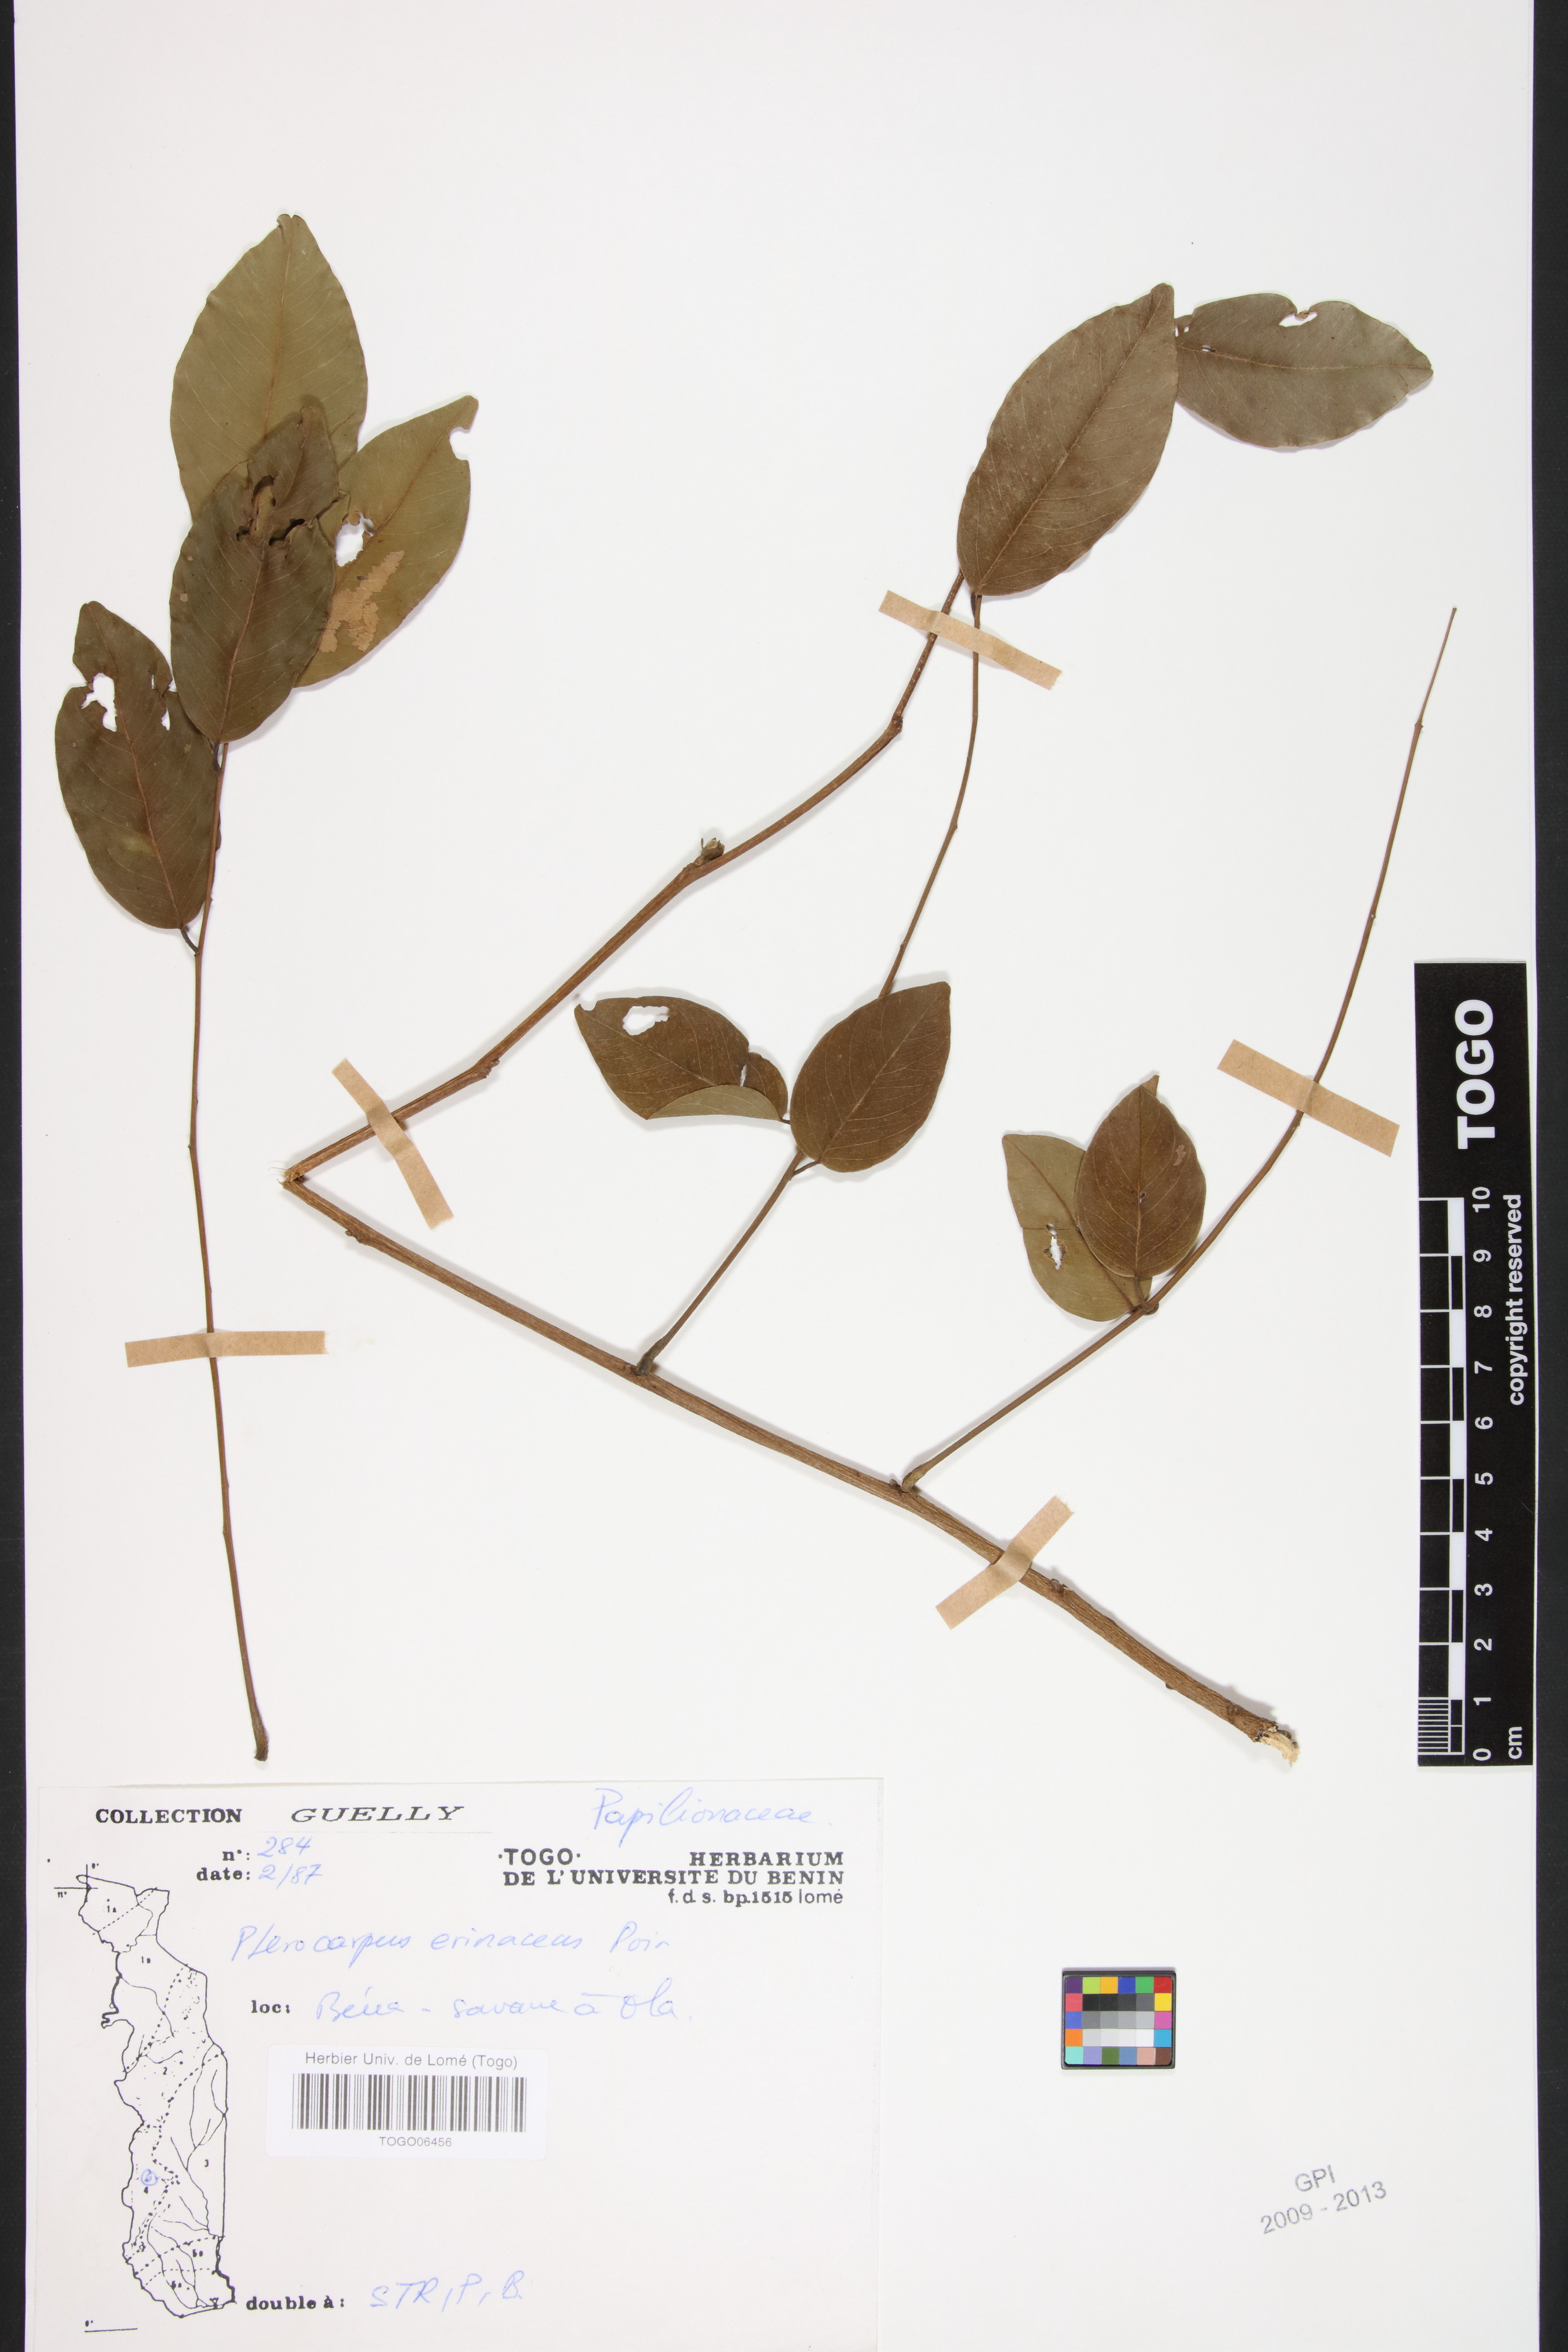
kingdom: Plantae
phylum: Tracheophyta
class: Magnoliopsida
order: Fabales
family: Fabaceae
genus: Pterocarpus
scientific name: Pterocarpus erinaceus
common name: African rosewood
